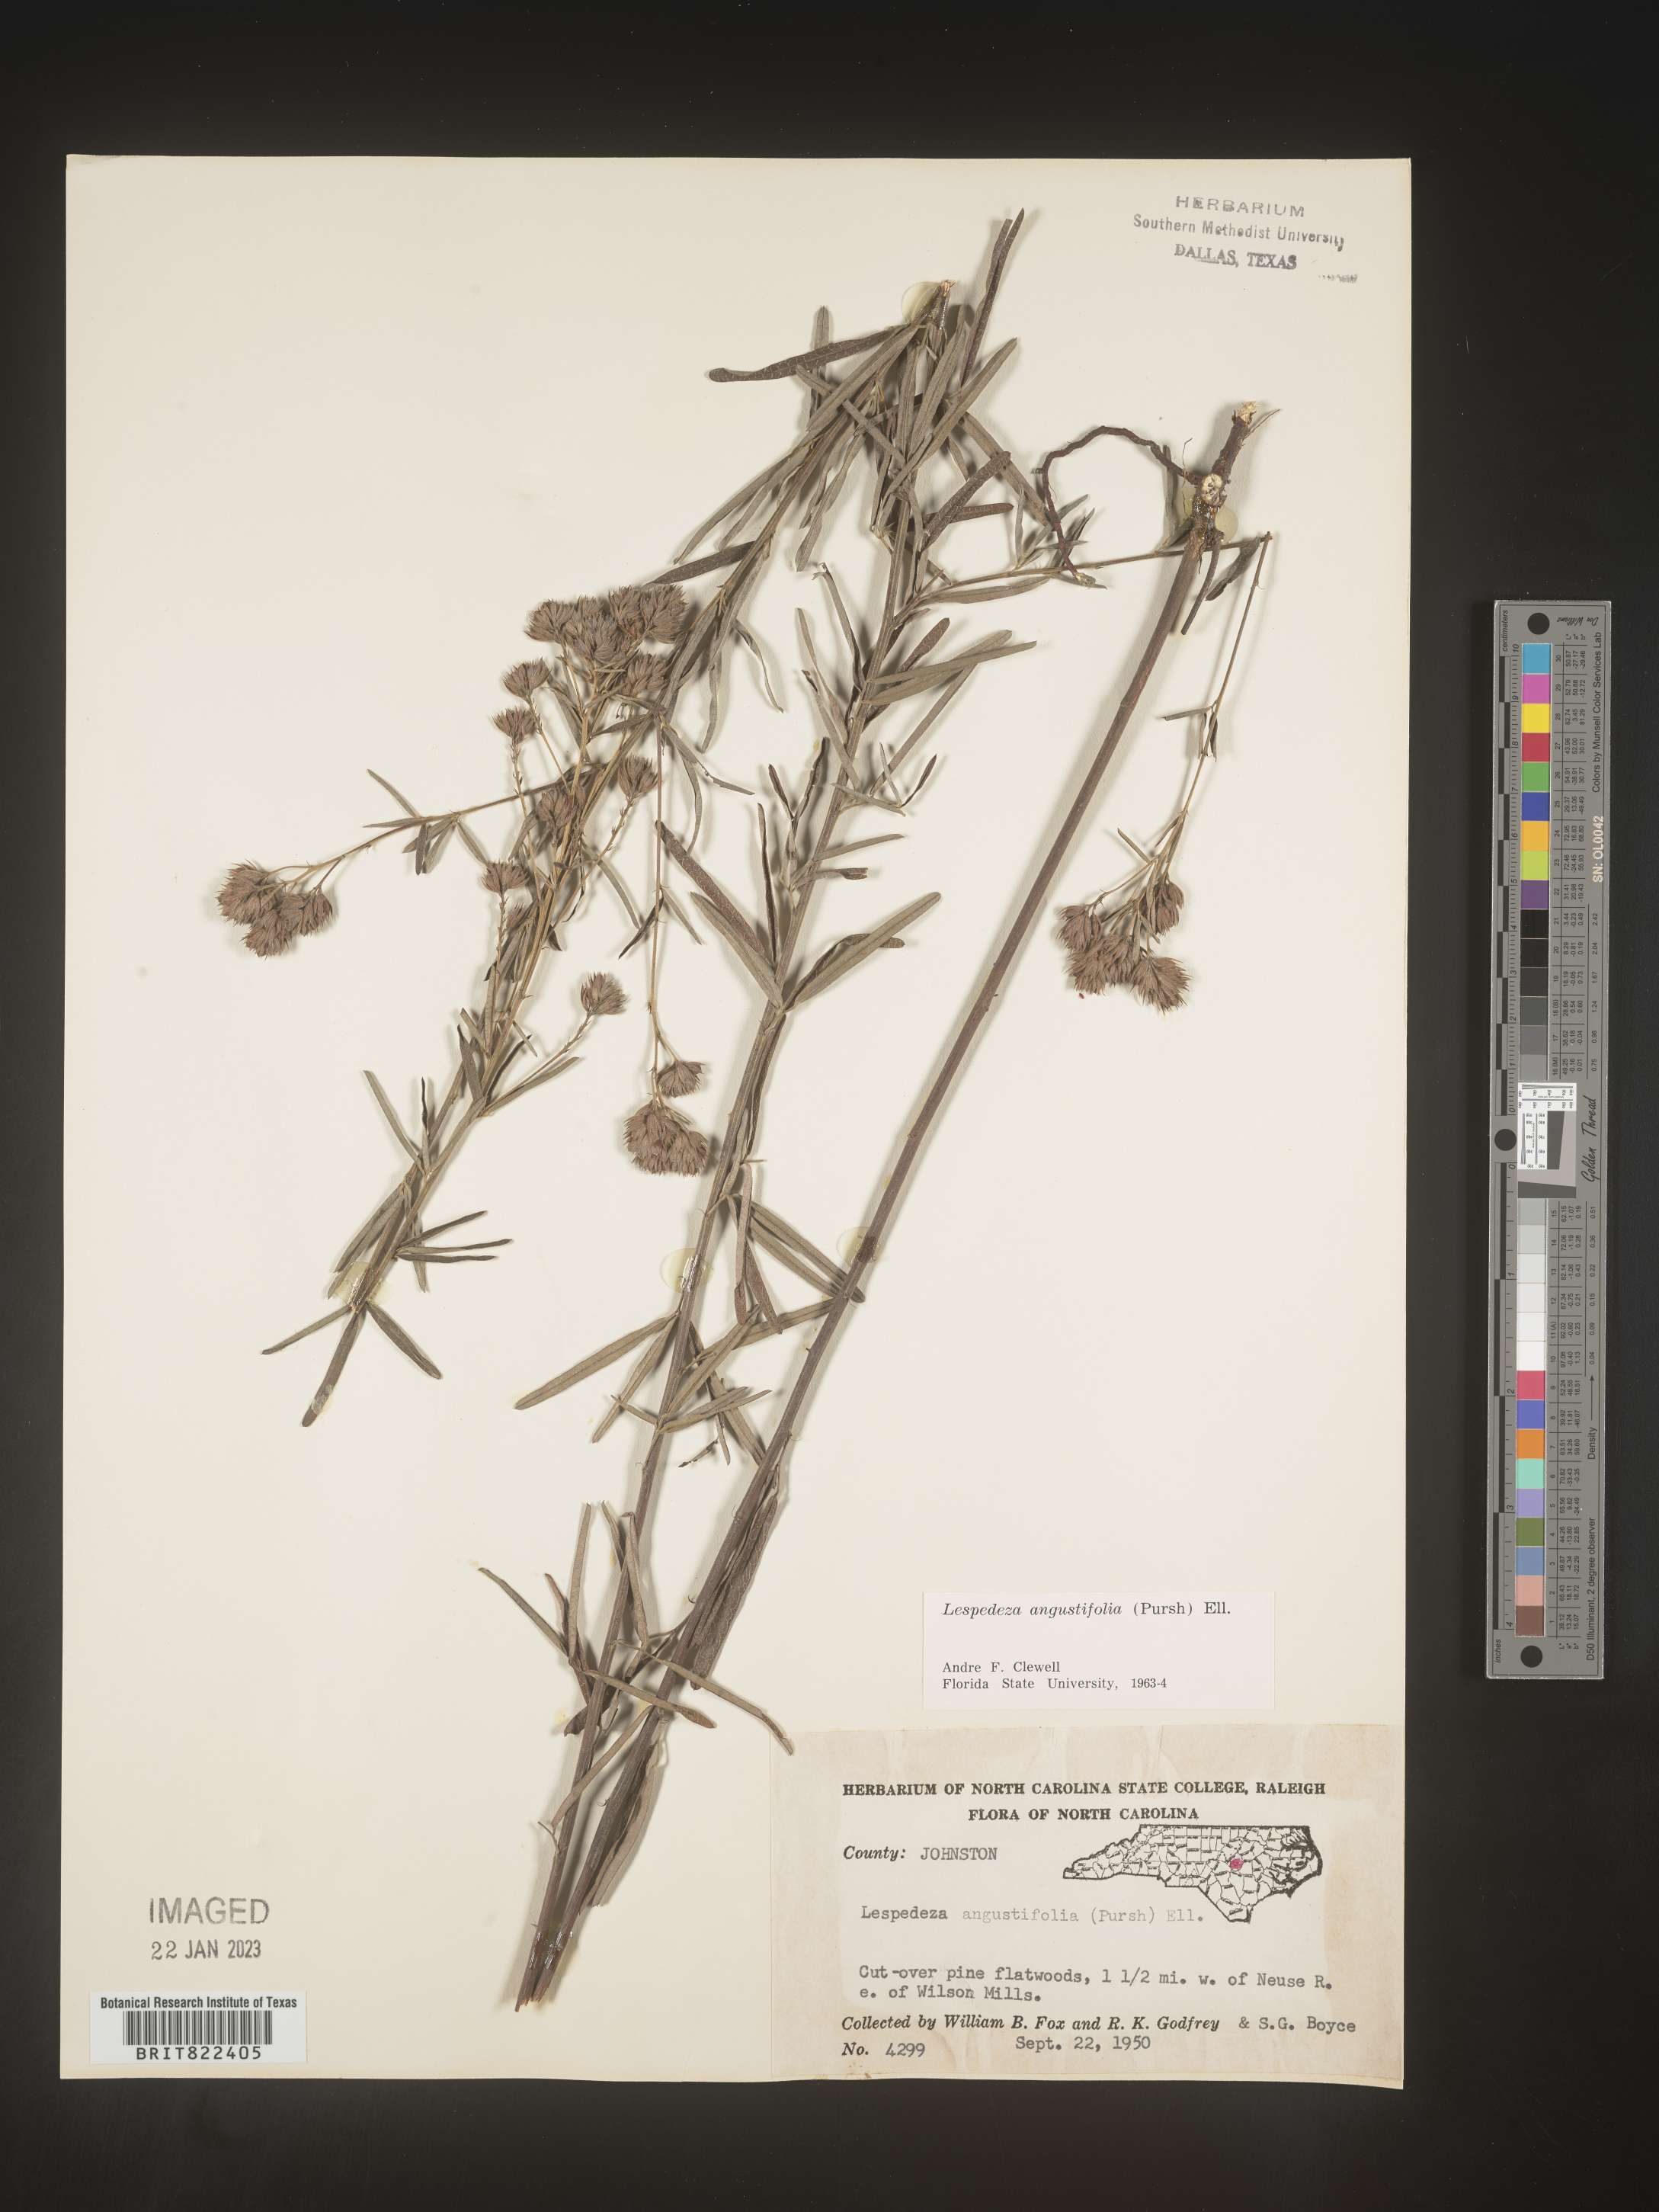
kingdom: Plantae
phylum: Tracheophyta
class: Magnoliopsida
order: Fabales
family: Fabaceae
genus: Lespedeza
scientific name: Lespedeza
